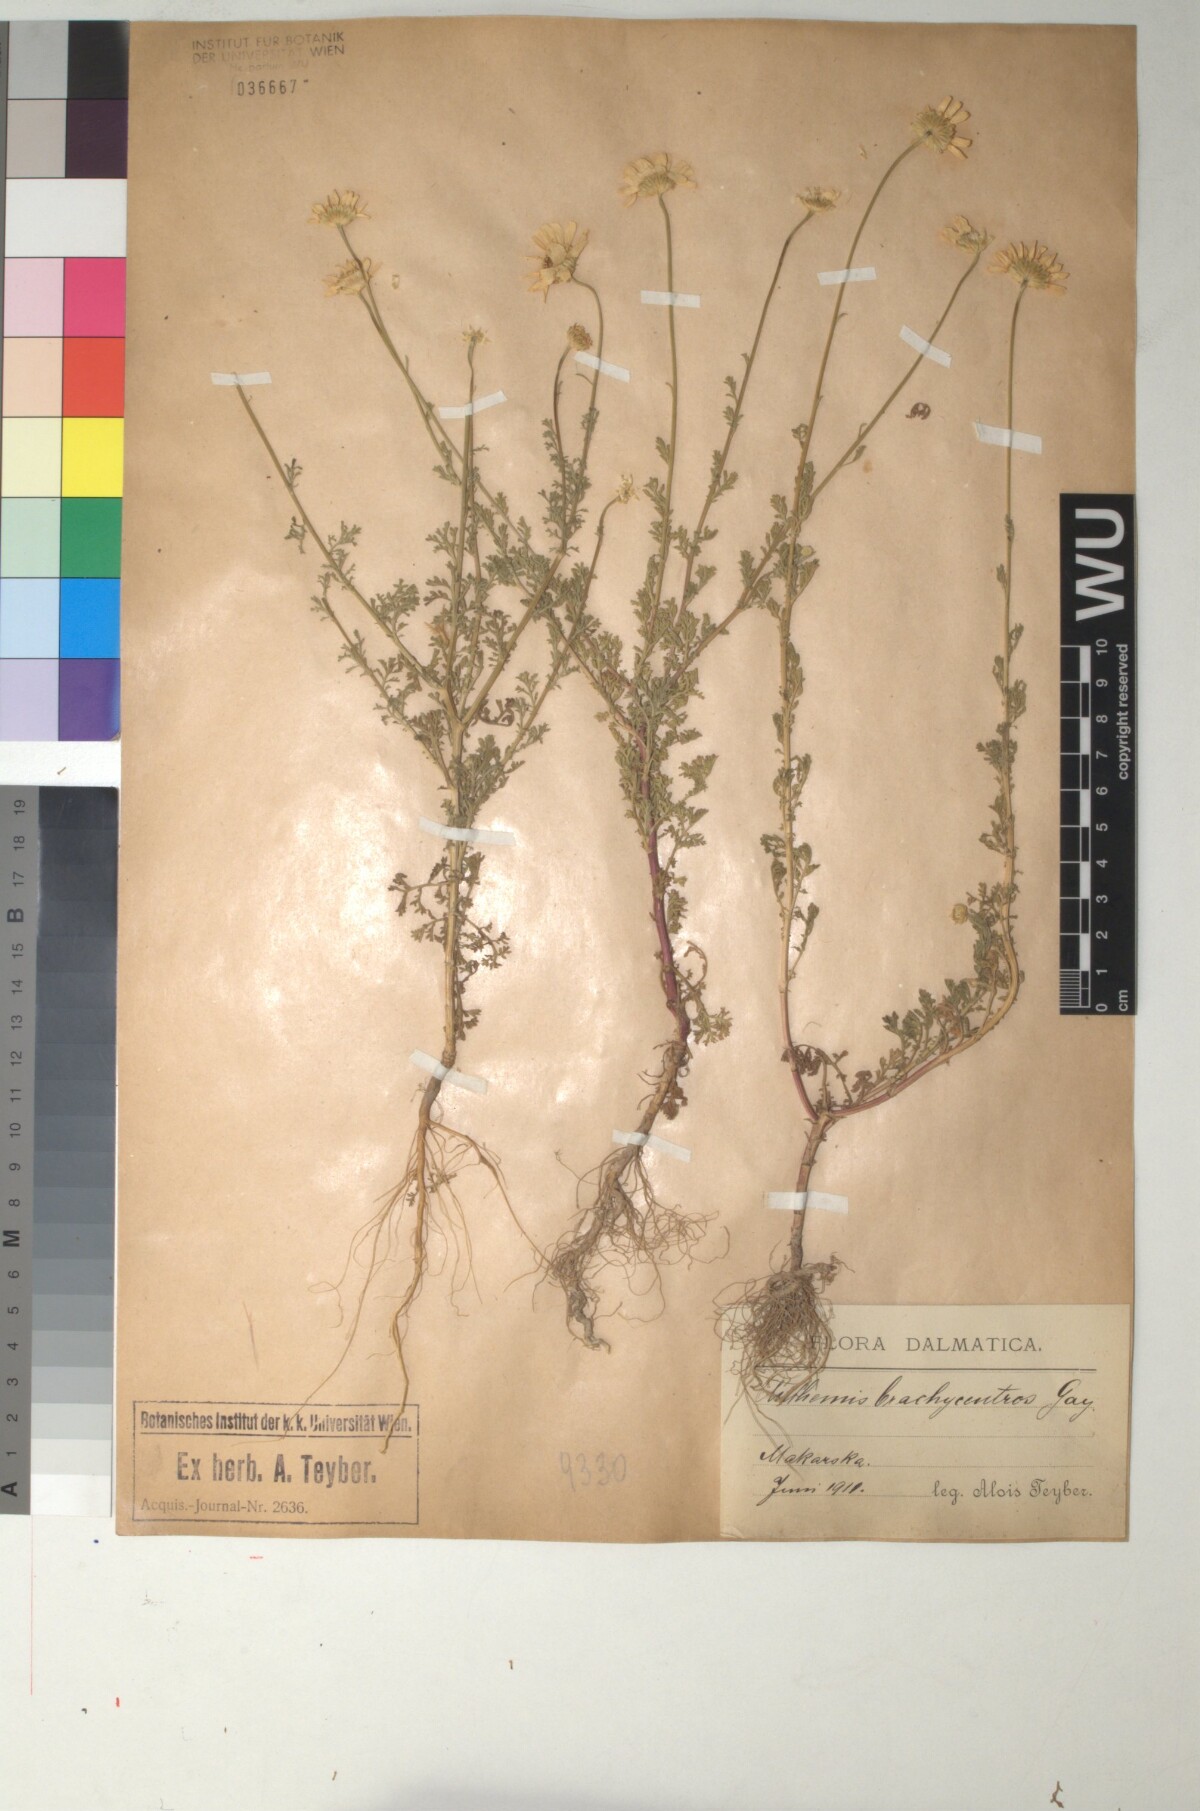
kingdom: Plantae
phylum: Tracheophyta
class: Magnoliopsida
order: Asterales
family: Asteraceae
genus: Cota
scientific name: Cota segetalis
